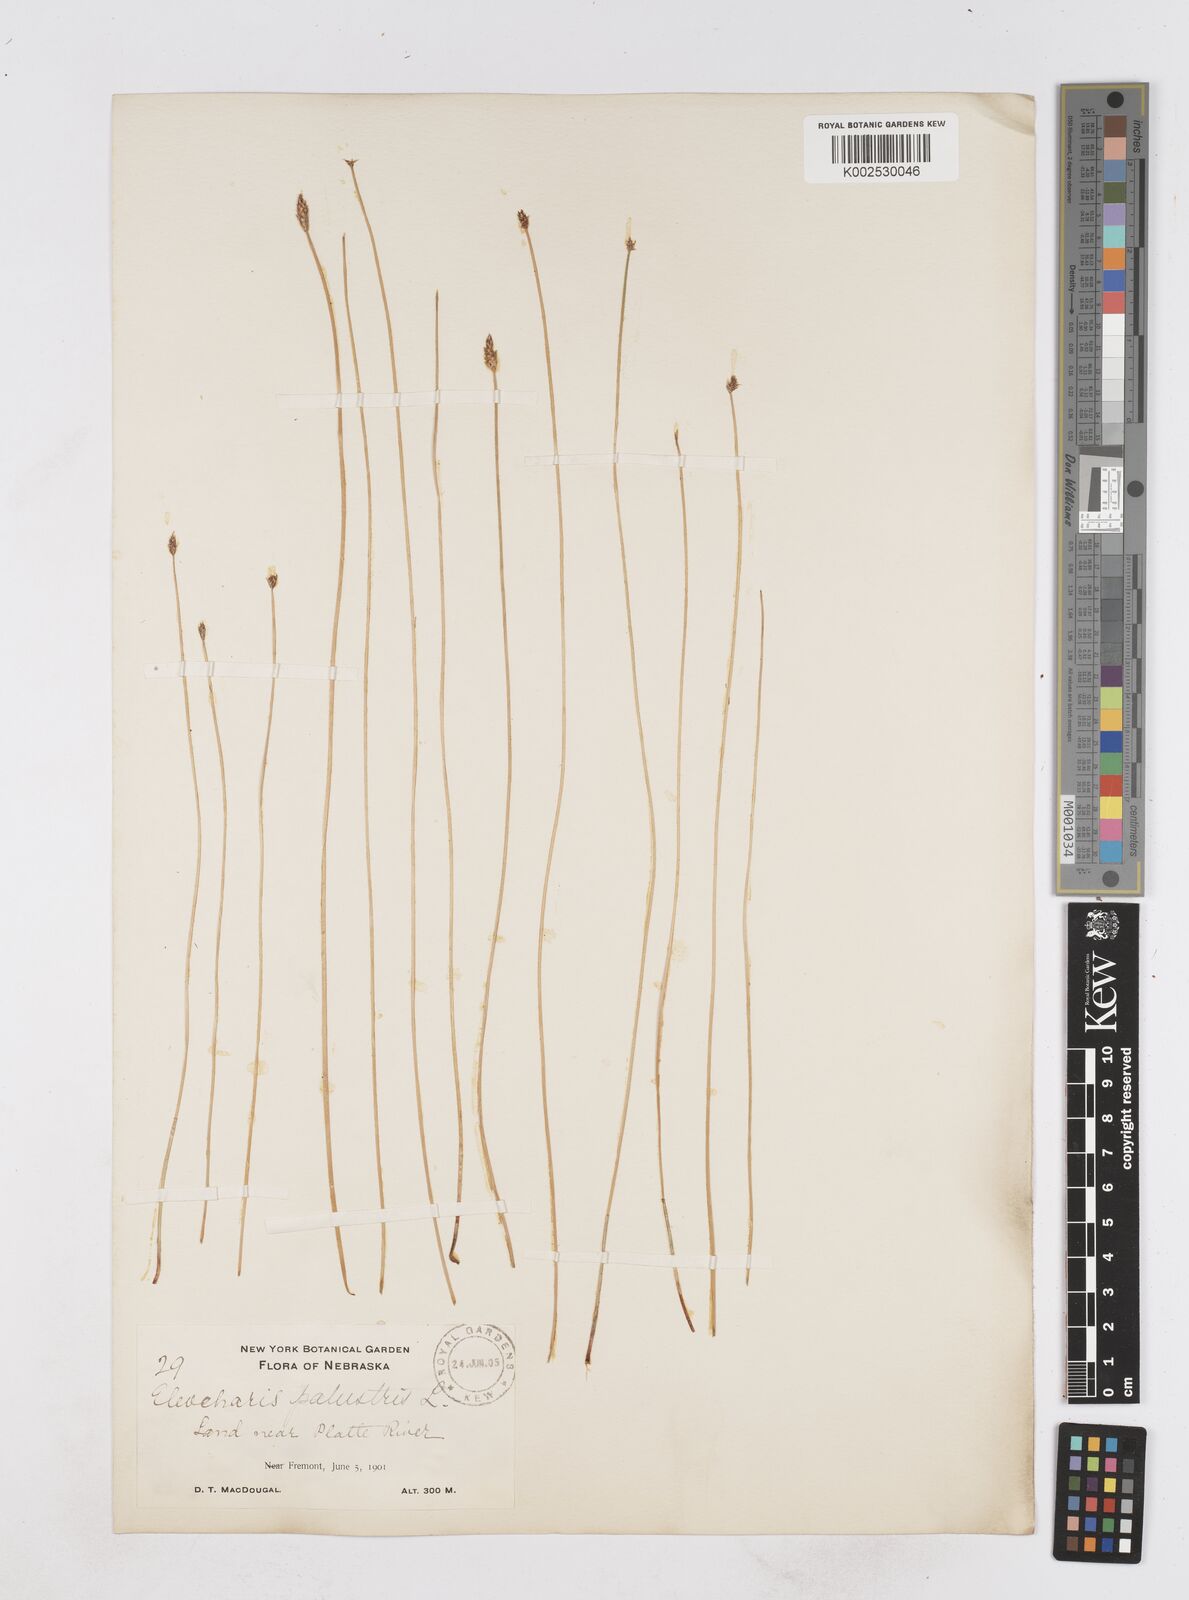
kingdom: Plantae
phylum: Tracheophyta
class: Liliopsida
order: Poales
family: Cyperaceae
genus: Eleocharis
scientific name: Eleocharis palustris
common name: Common spike-rush
